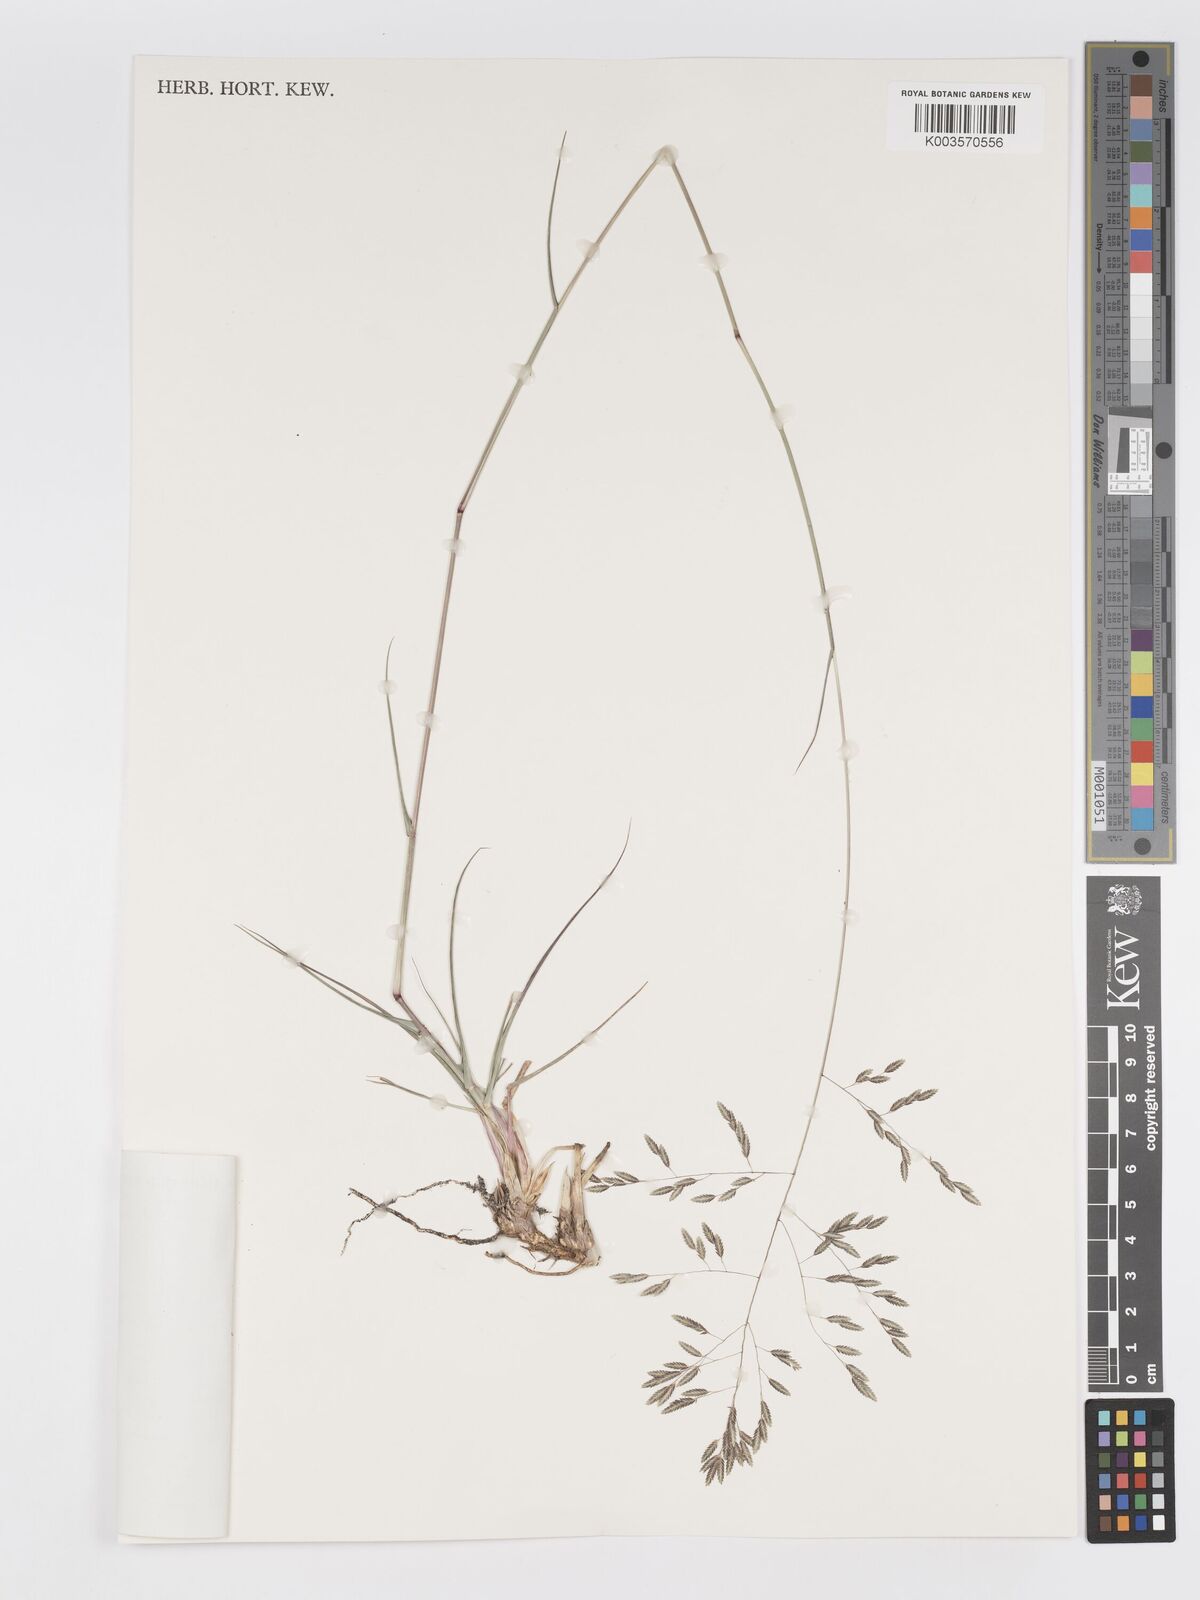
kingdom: Plantae
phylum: Tracheophyta
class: Liliopsida
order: Poales
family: Poaceae
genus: Eragrostis
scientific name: Eragrostis inamoena
